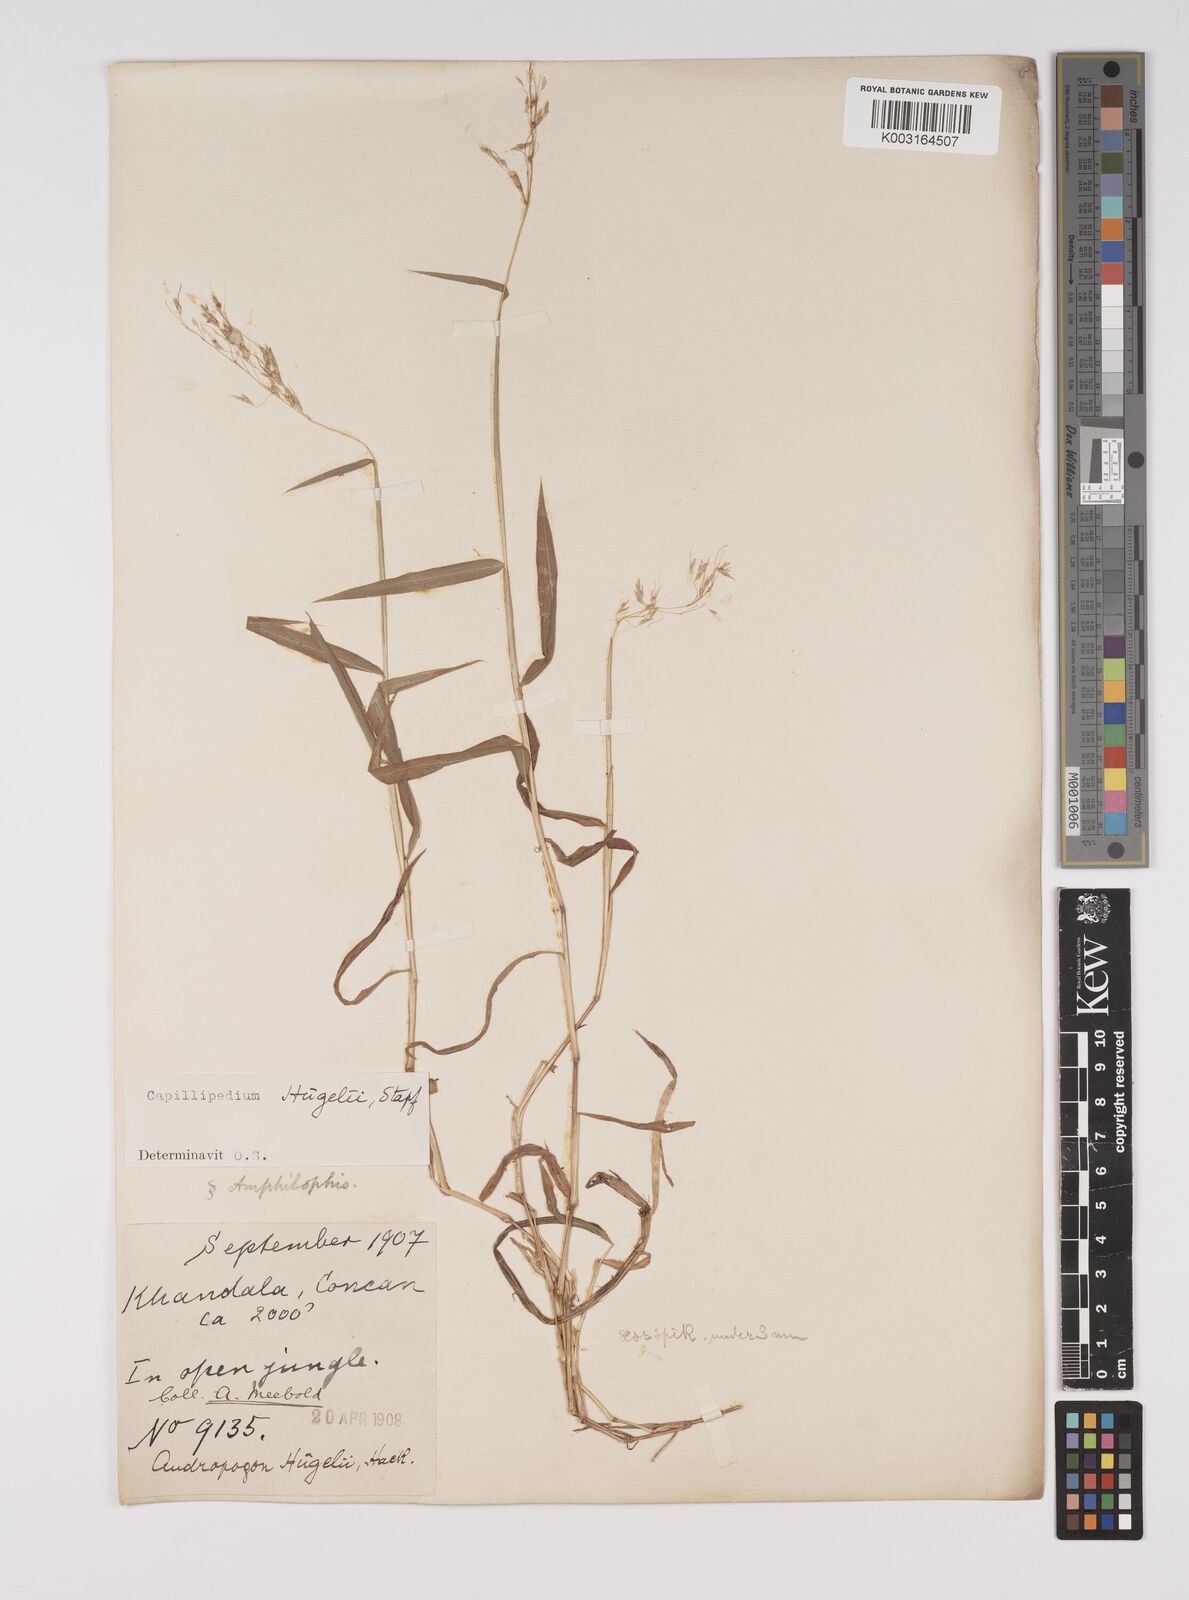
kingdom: Plantae
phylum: Tracheophyta
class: Liliopsida
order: Poales
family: Poaceae
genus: Capillipedium
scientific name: Capillipedium huegelii
